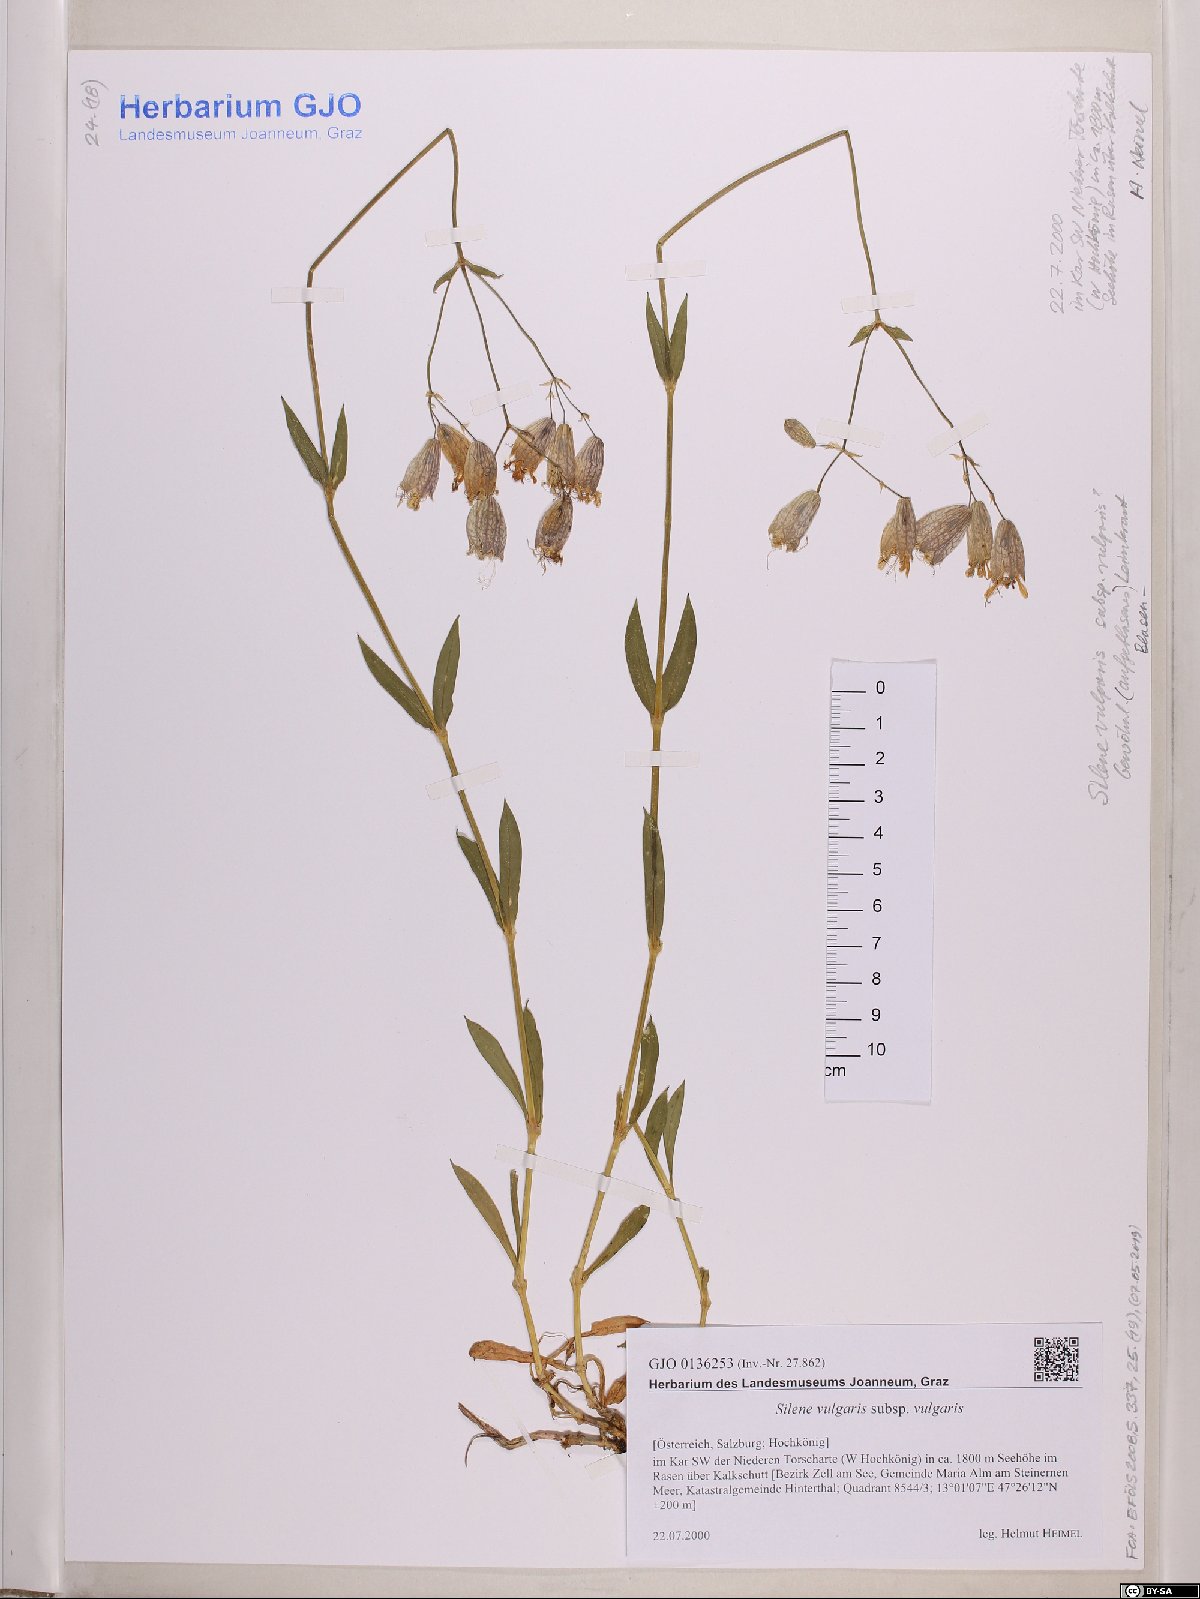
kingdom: Plantae
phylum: Tracheophyta
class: Magnoliopsida
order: Caryophyllales
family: Caryophyllaceae
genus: Silene
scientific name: Silene vulgaris
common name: Bladder campion
